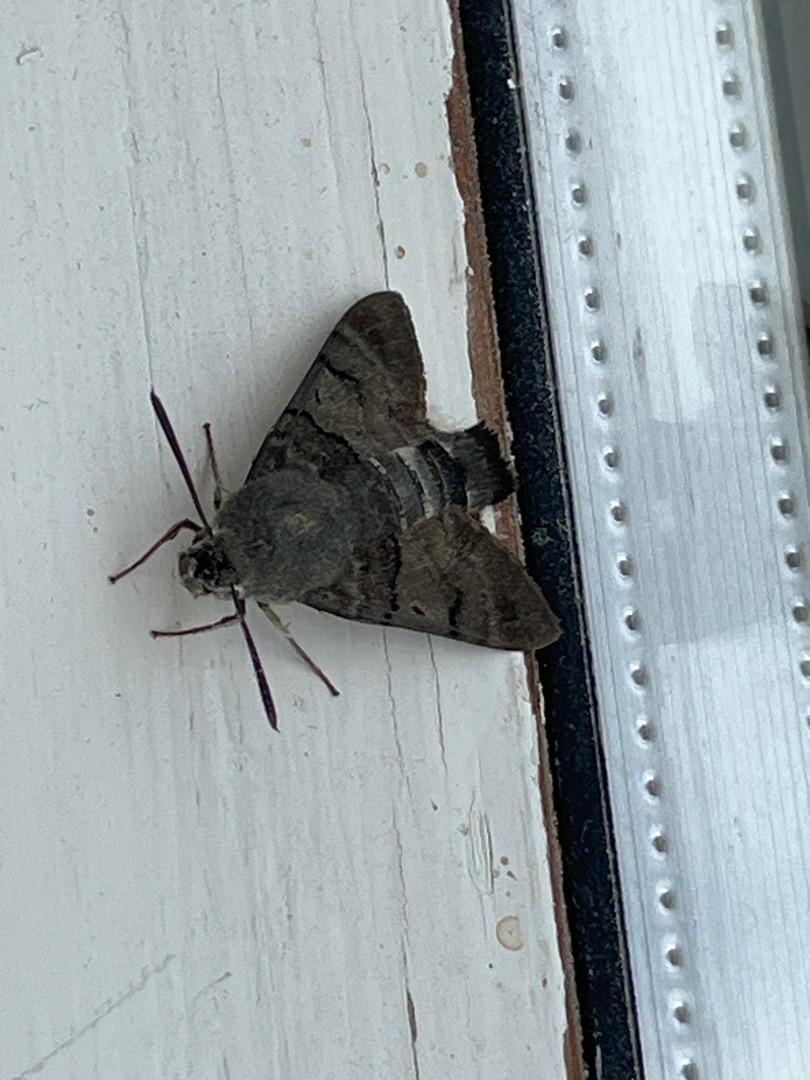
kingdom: Animalia
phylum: Arthropoda
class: Insecta
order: Lepidoptera
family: Sphingidae
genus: Macroglossum
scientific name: Macroglossum stellatarum
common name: Duehale
